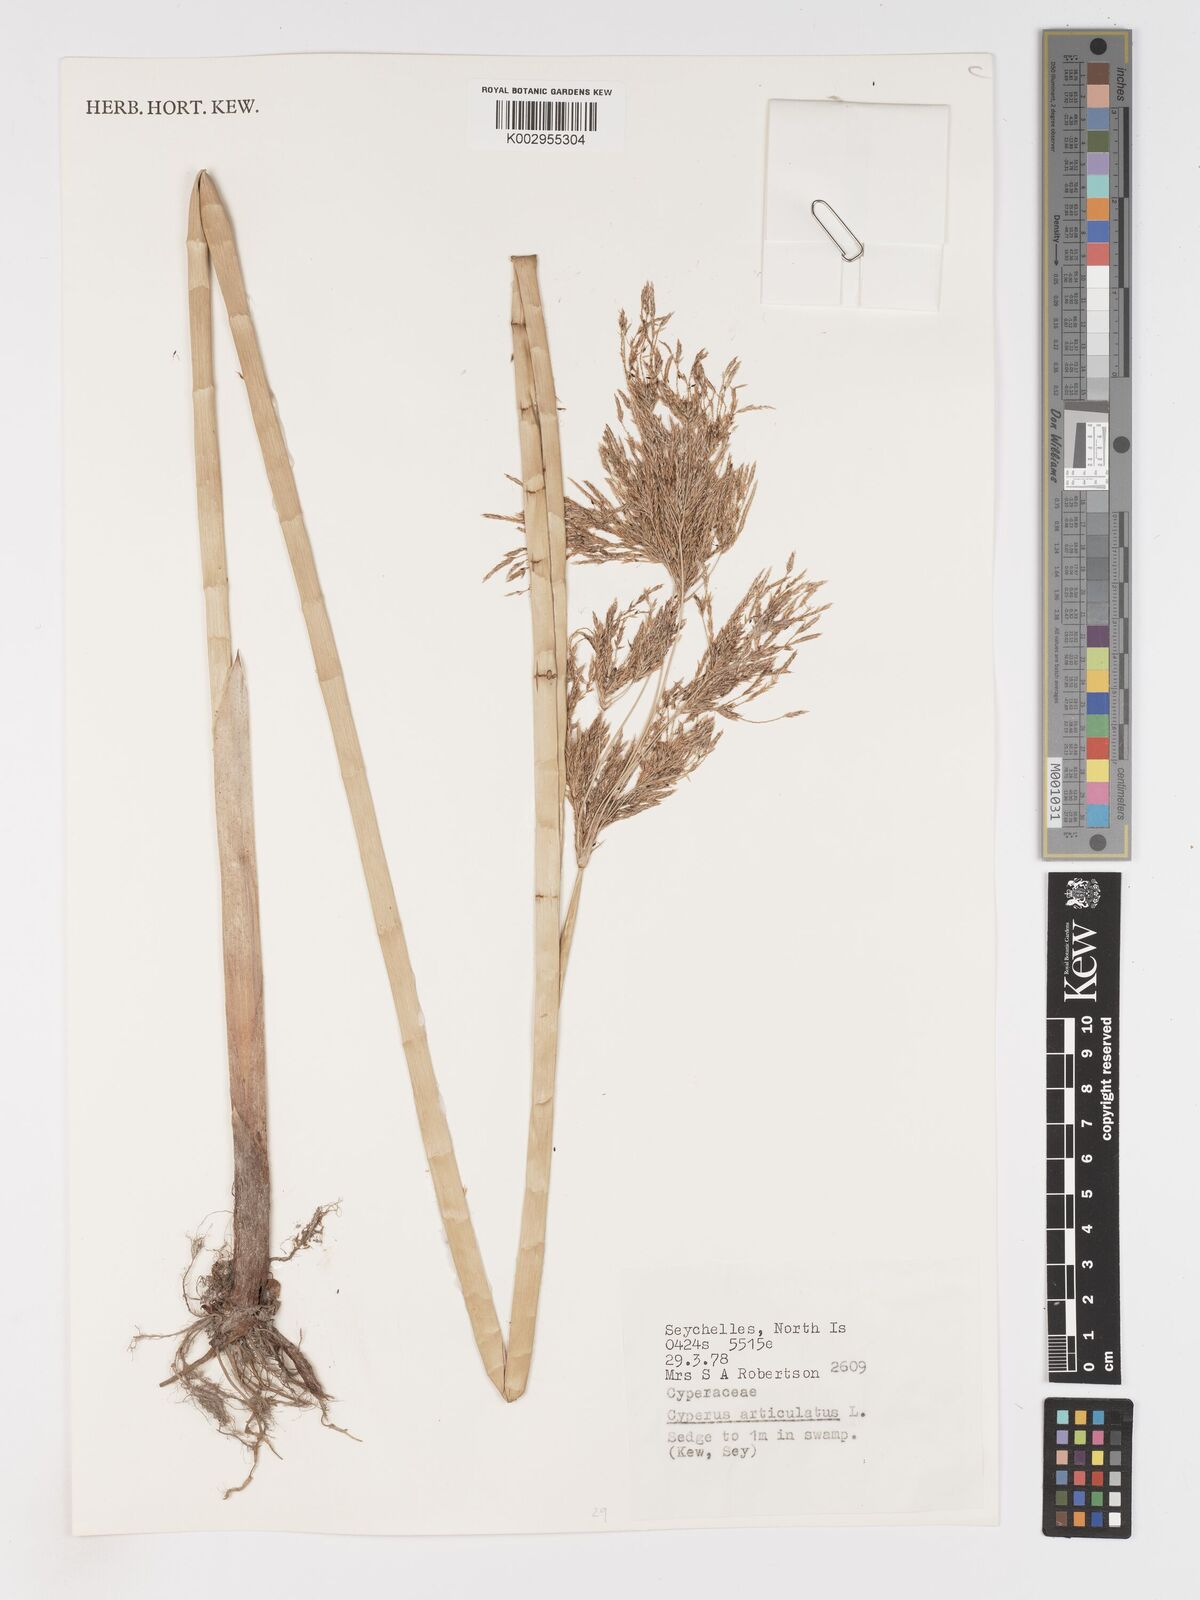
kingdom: Plantae
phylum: Tracheophyta
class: Liliopsida
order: Poales
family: Cyperaceae
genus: Cyperus
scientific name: Cyperus articulatus
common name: Jointed flatsedge
